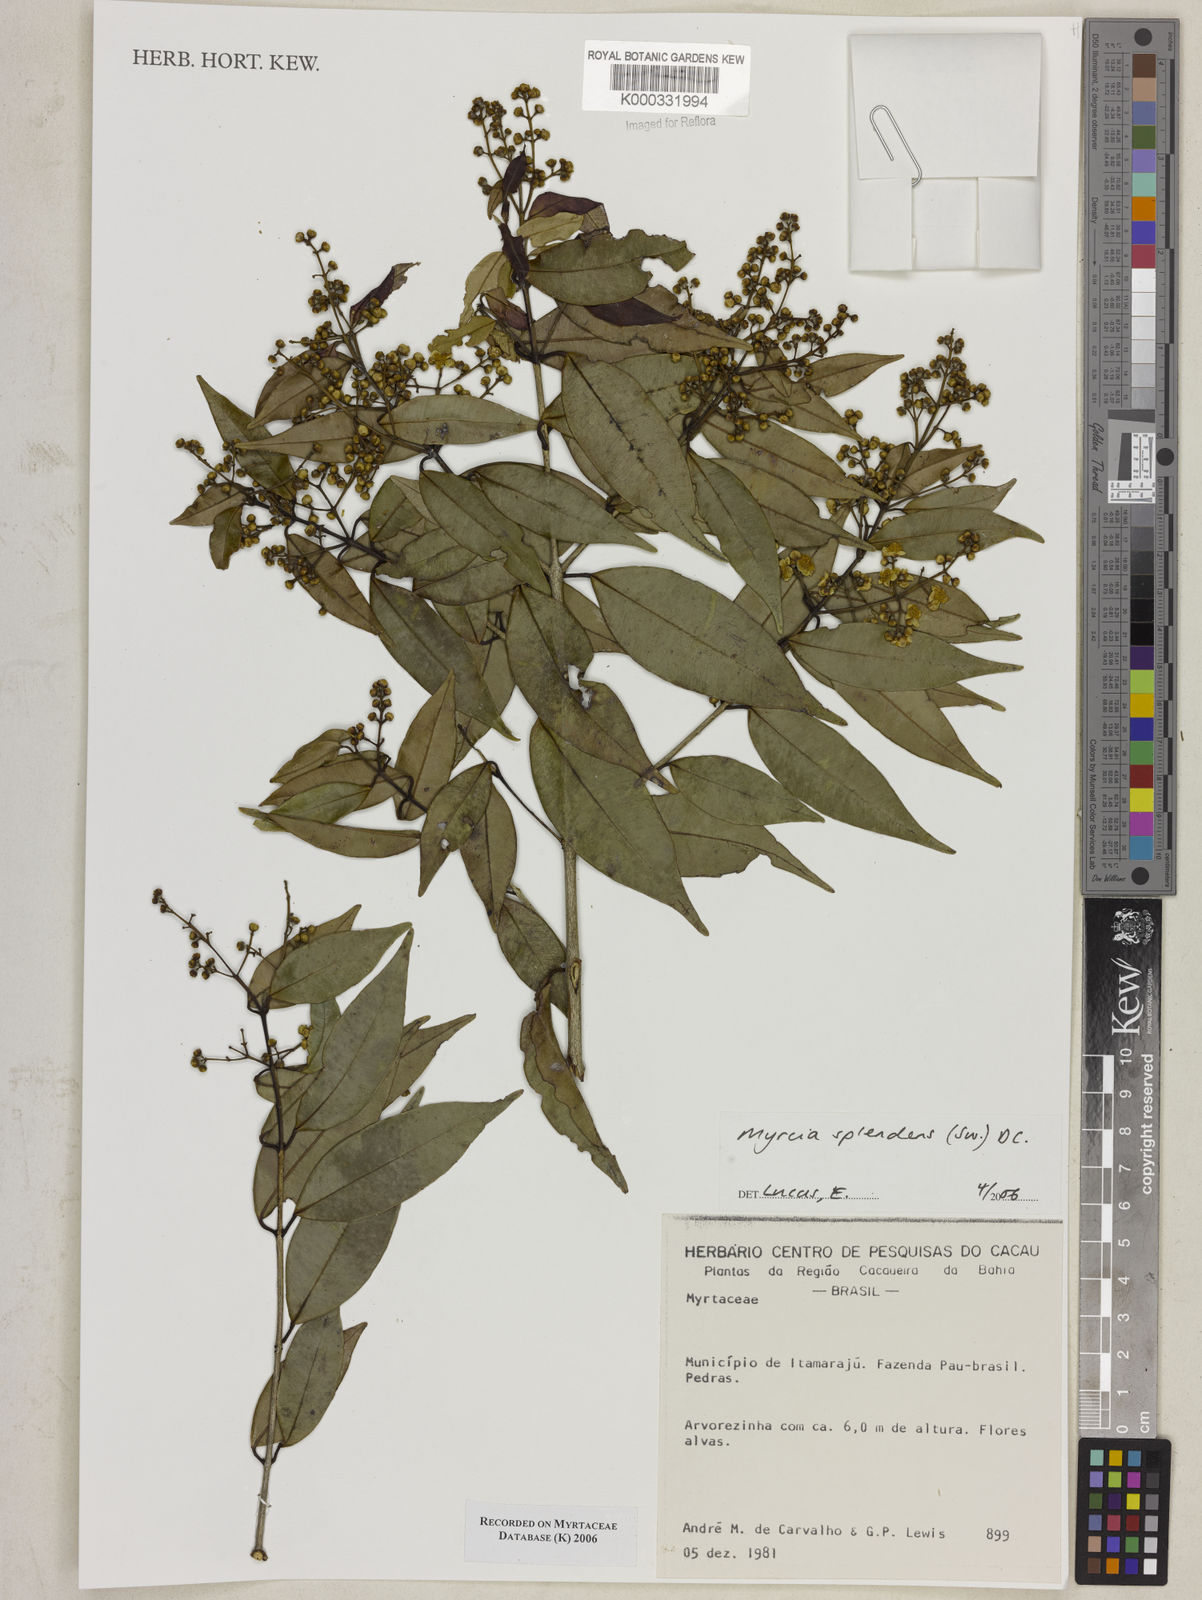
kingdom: Plantae
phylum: Tracheophyta
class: Magnoliopsida
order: Myrtales
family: Myrtaceae
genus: Myrcia
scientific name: Myrcia splendens
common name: Surinam cherry
